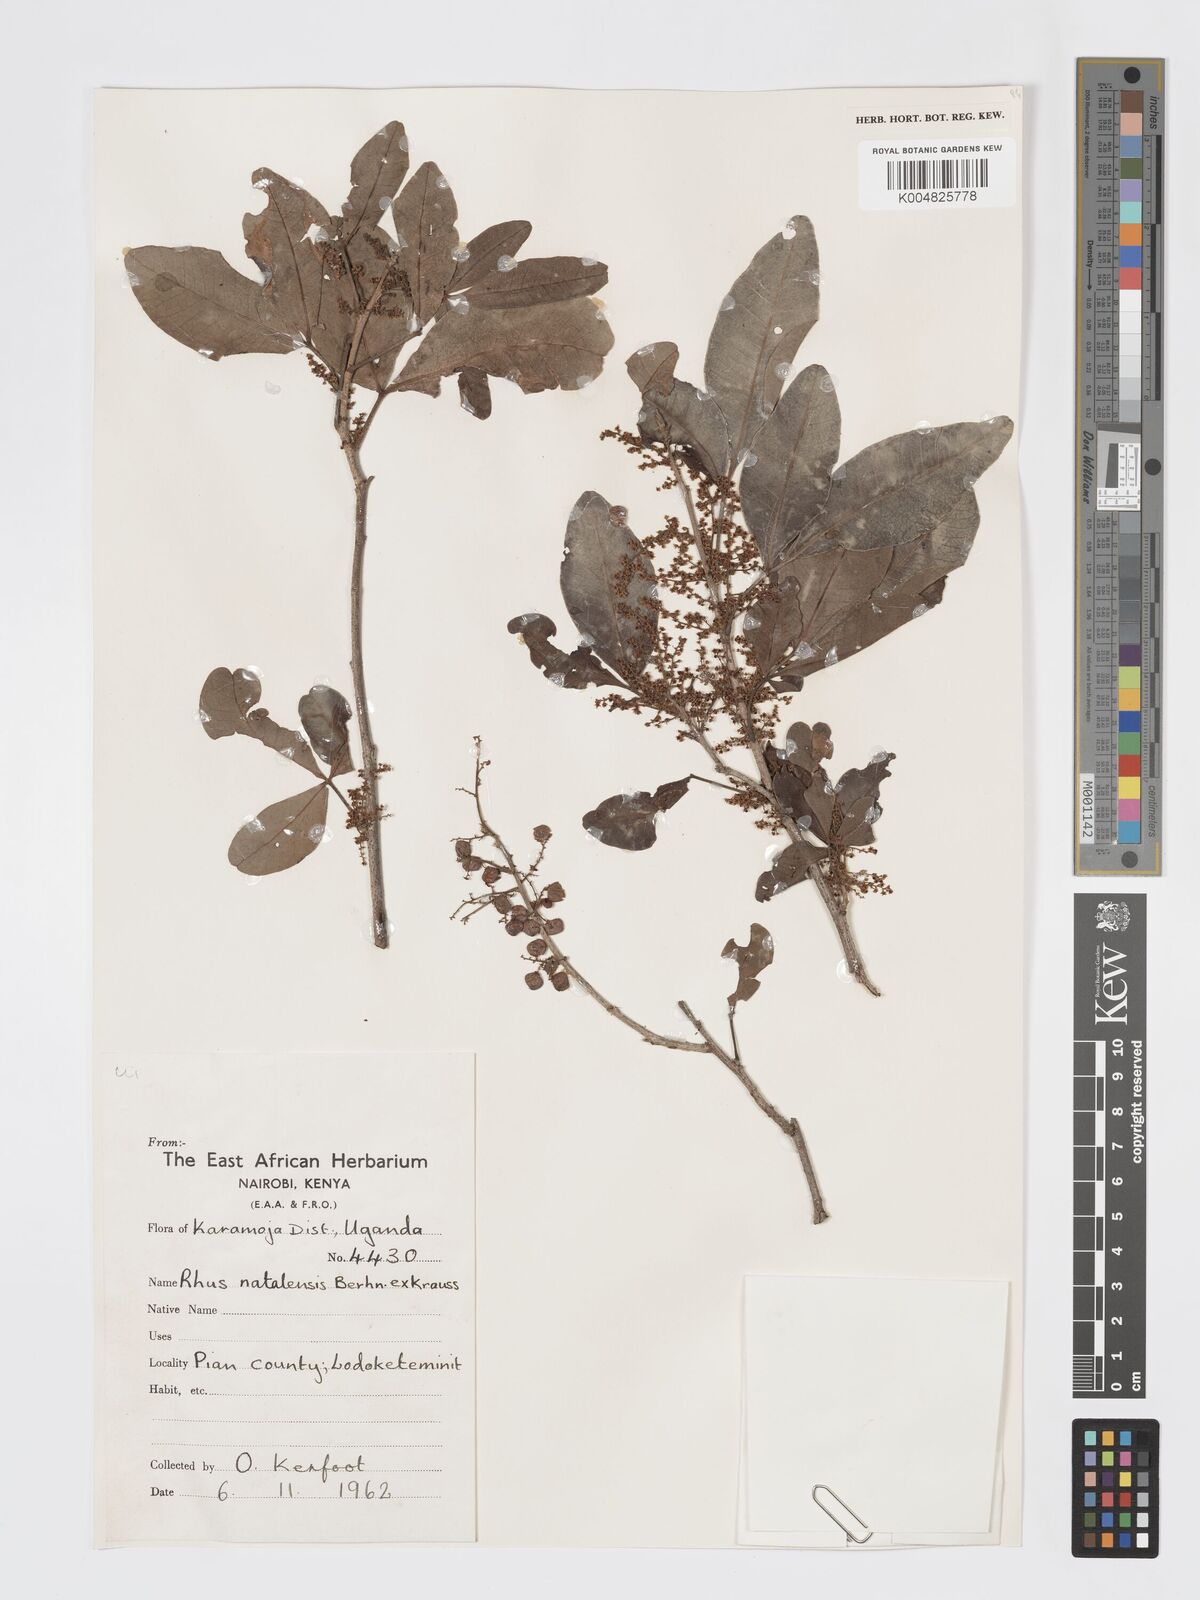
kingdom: Plantae
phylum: Tracheophyta
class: Magnoliopsida
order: Sapindales
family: Anacardiaceae
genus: Searsia
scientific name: Searsia natalensis
